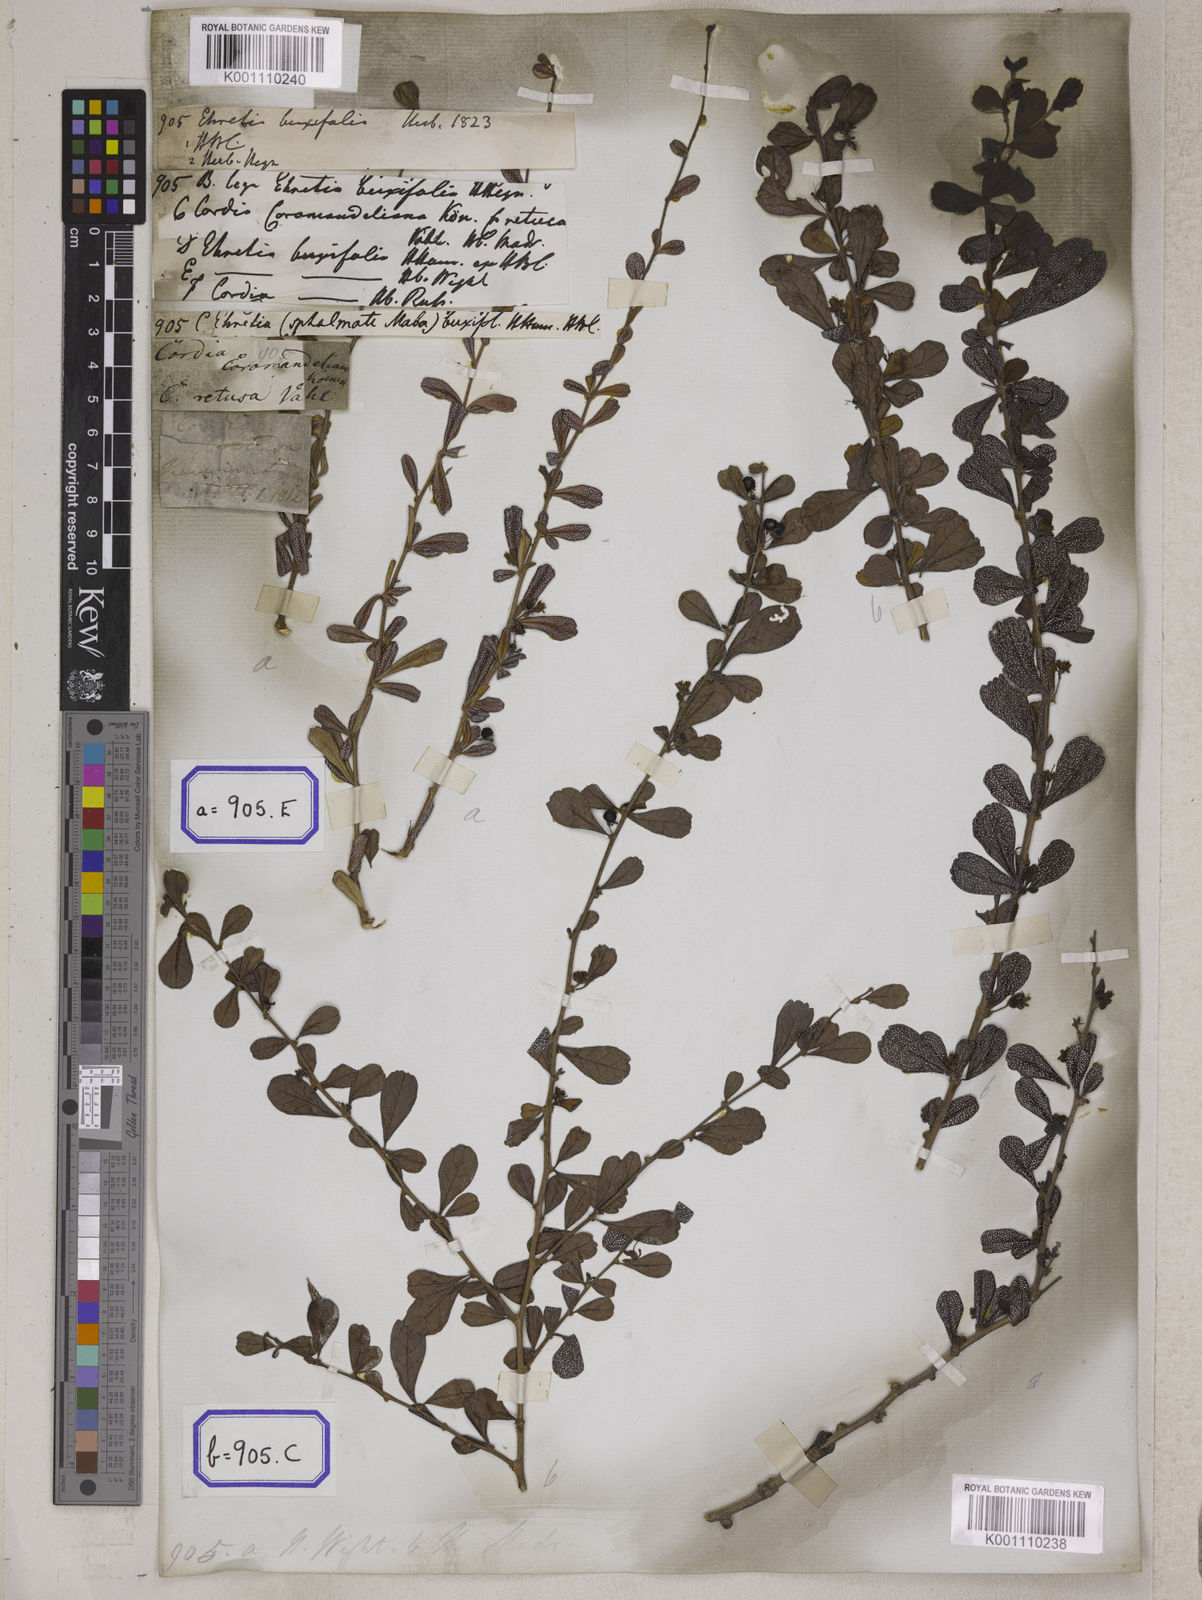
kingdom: Plantae
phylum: Tracheophyta
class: Magnoliopsida
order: Boraginales
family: Ehretiaceae
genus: Ehretia
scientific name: Ehretia microphylla
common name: Fukien-tea
